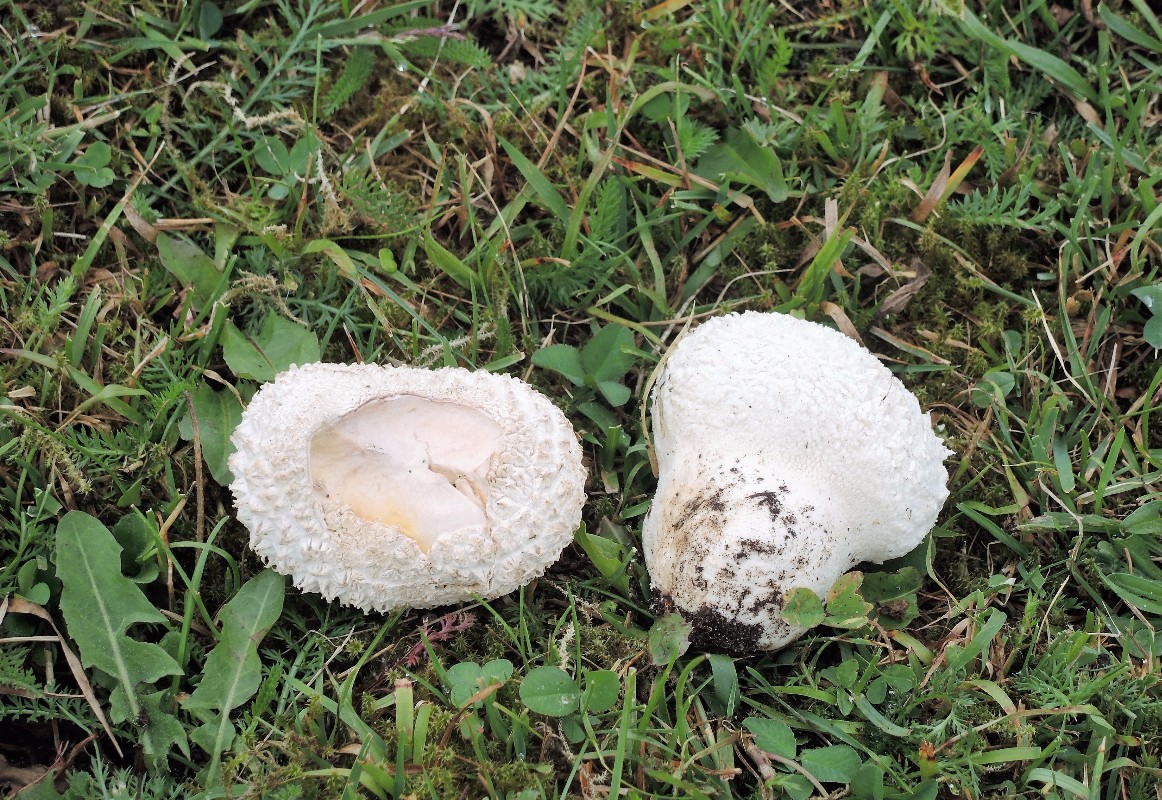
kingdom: Fungi
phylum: Basidiomycota
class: Agaricomycetes
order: Agaricales
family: Lycoperdaceae
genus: Bovistella
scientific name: Bovistella utriformis
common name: skællet støvbold
